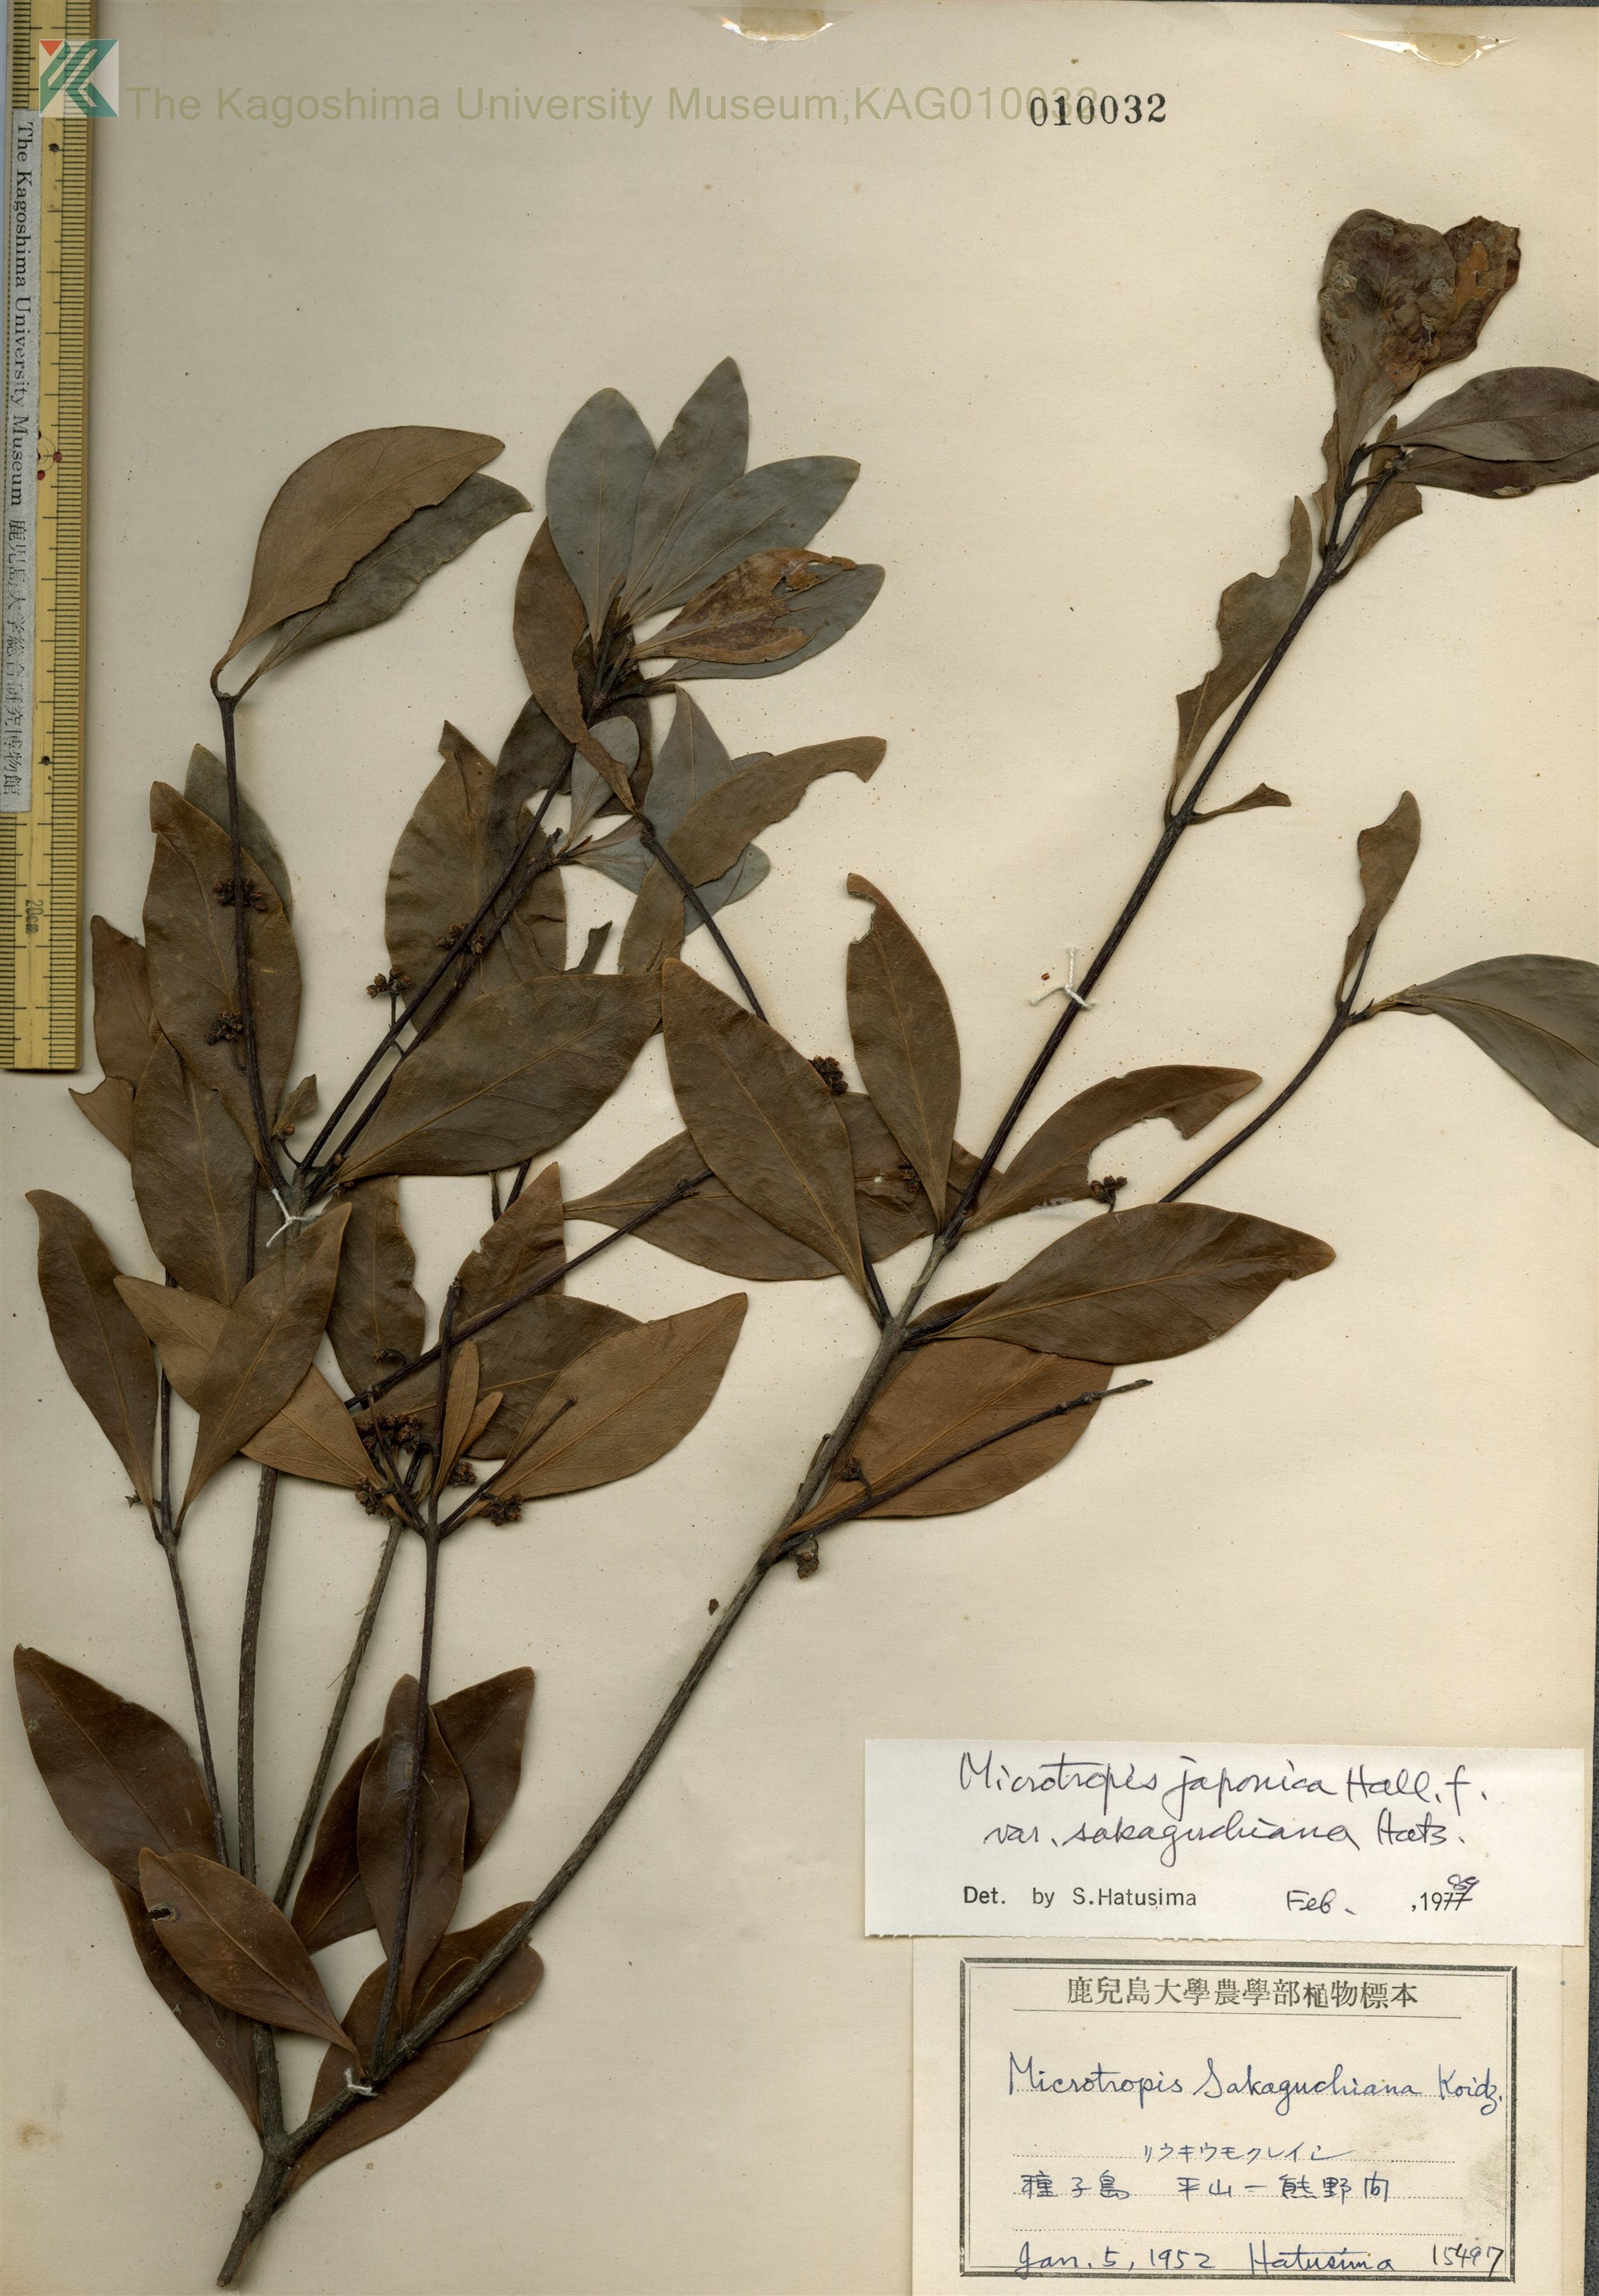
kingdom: Plantae
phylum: Tracheophyta
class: Magnoliopsida
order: Celastrales
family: Celastraceae
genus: Microtropis
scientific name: Microtropis japonica
